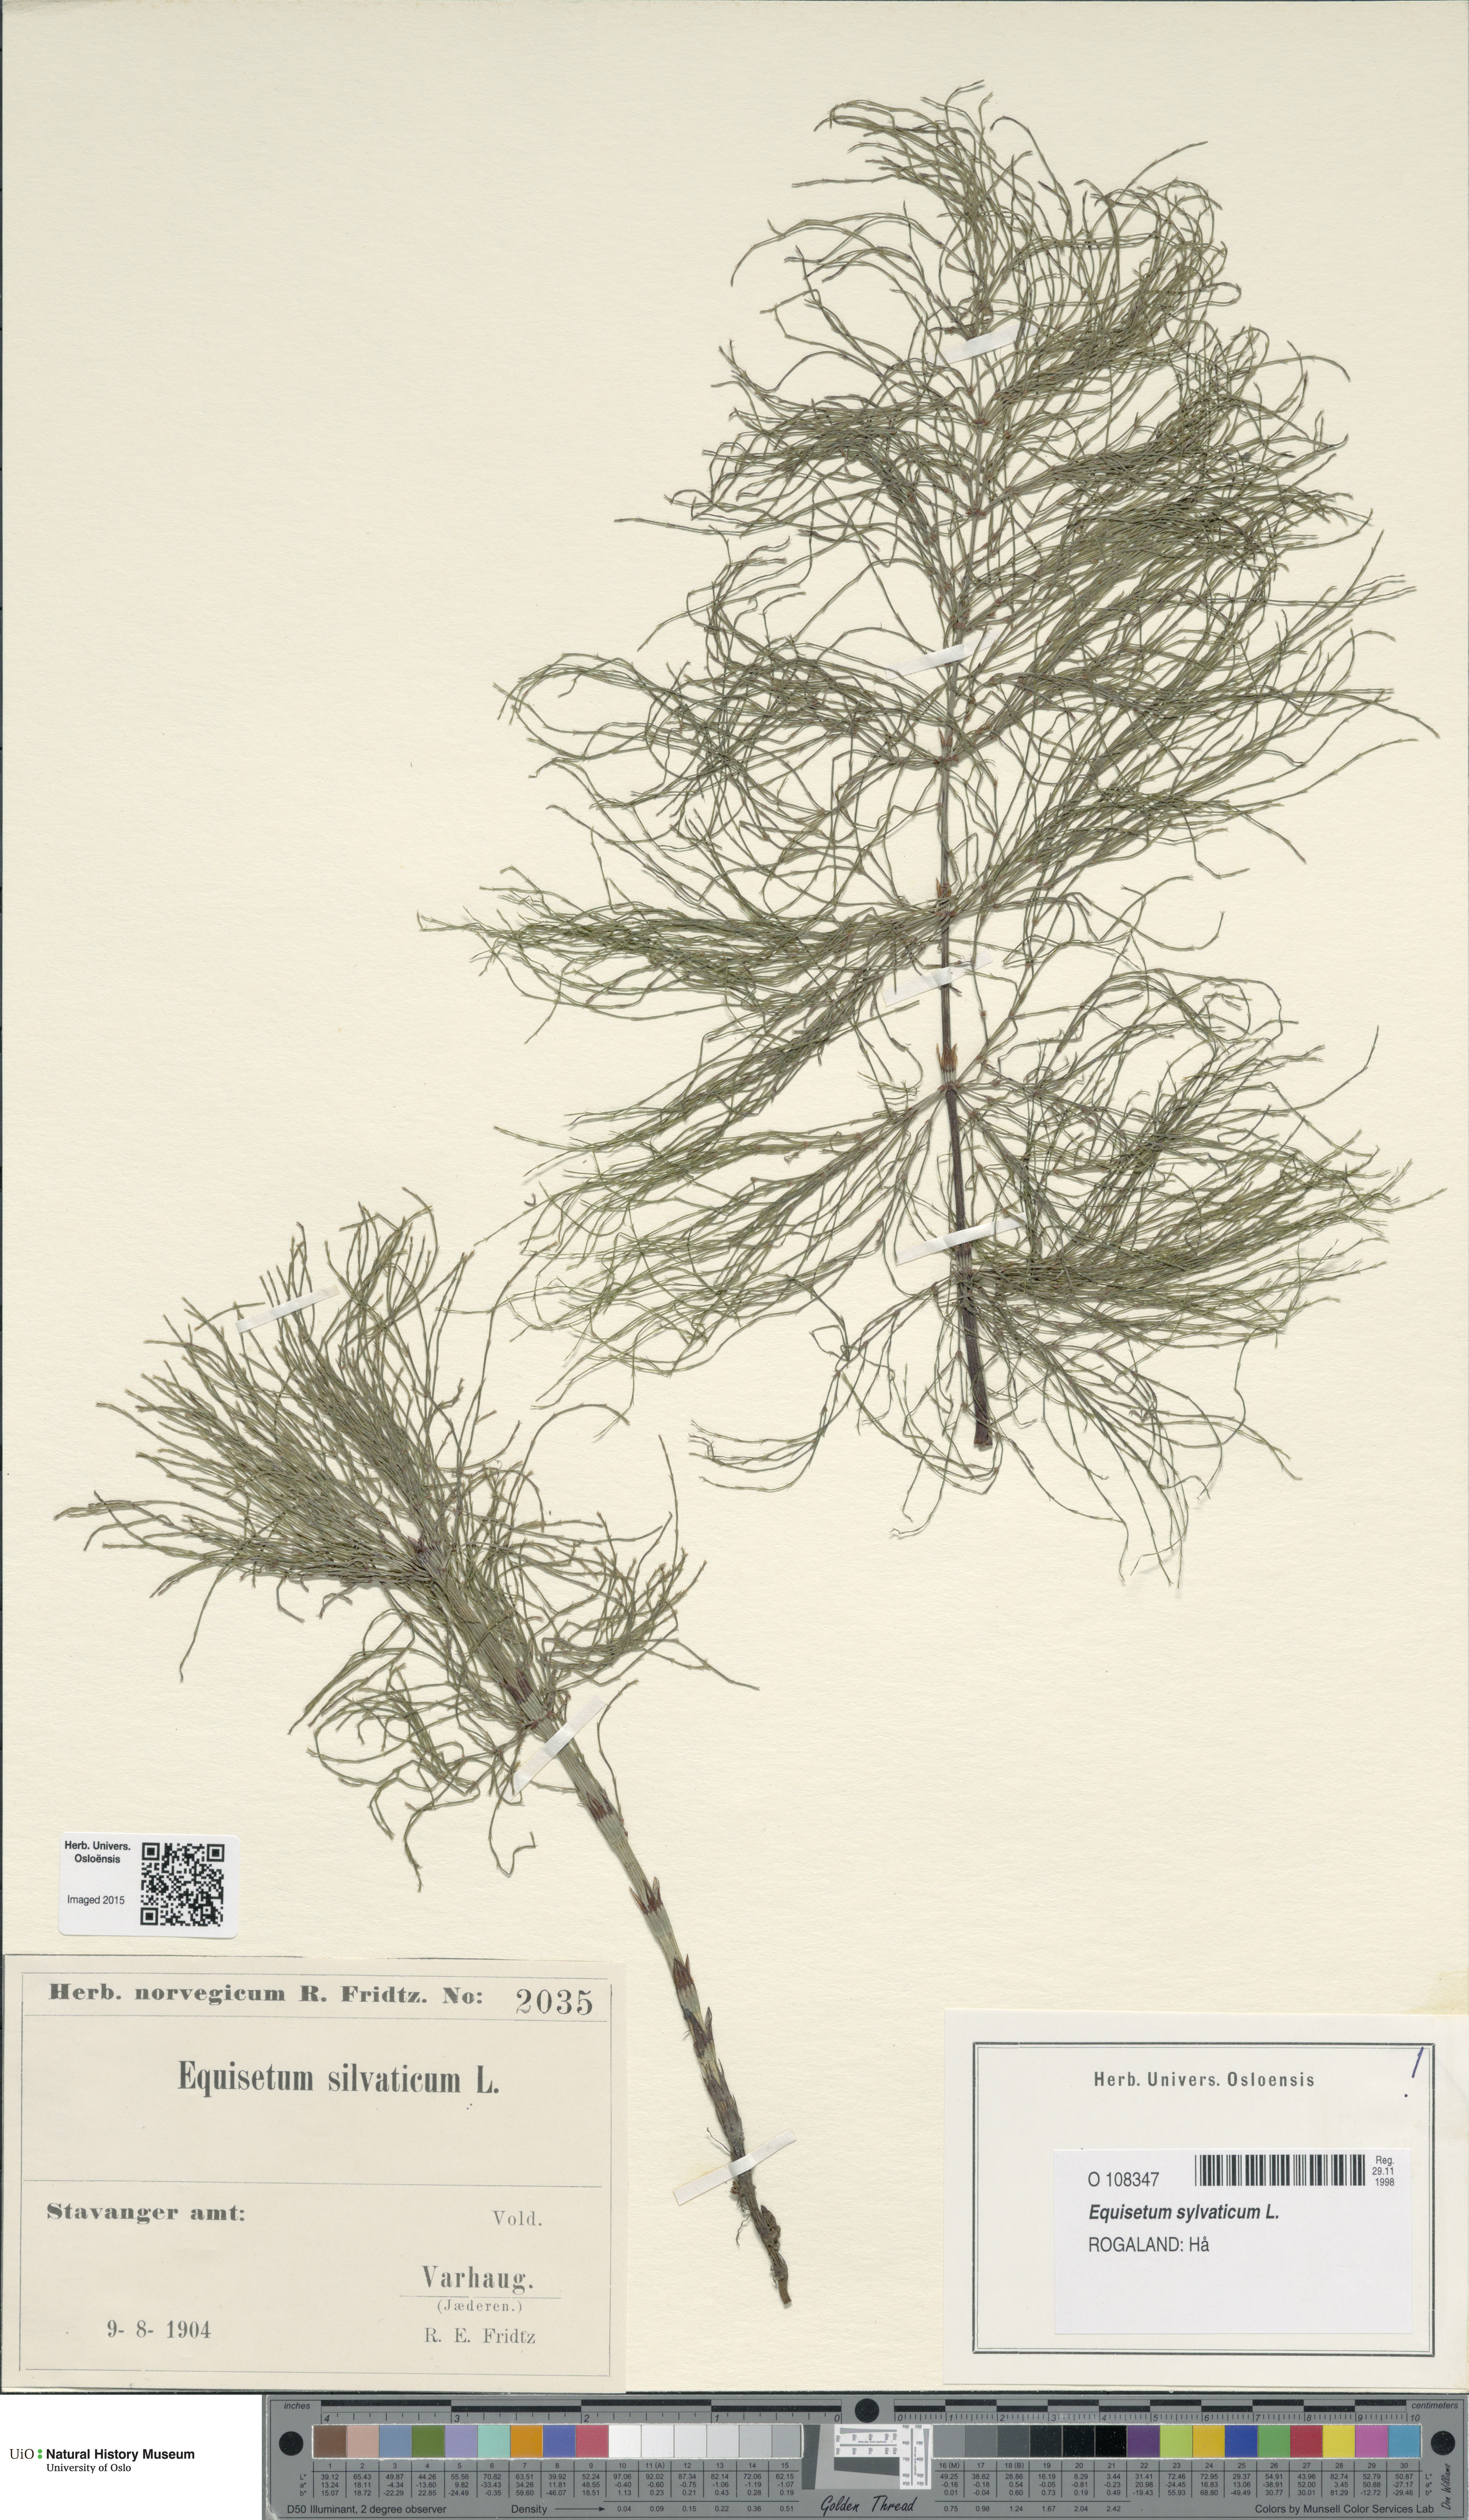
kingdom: Plantae
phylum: Tracheophyta
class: Polypodiopsida
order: Equisetales
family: Equisetaceae
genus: Equisetum
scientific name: Equisetum sylvaticum
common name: Wood horsetail
